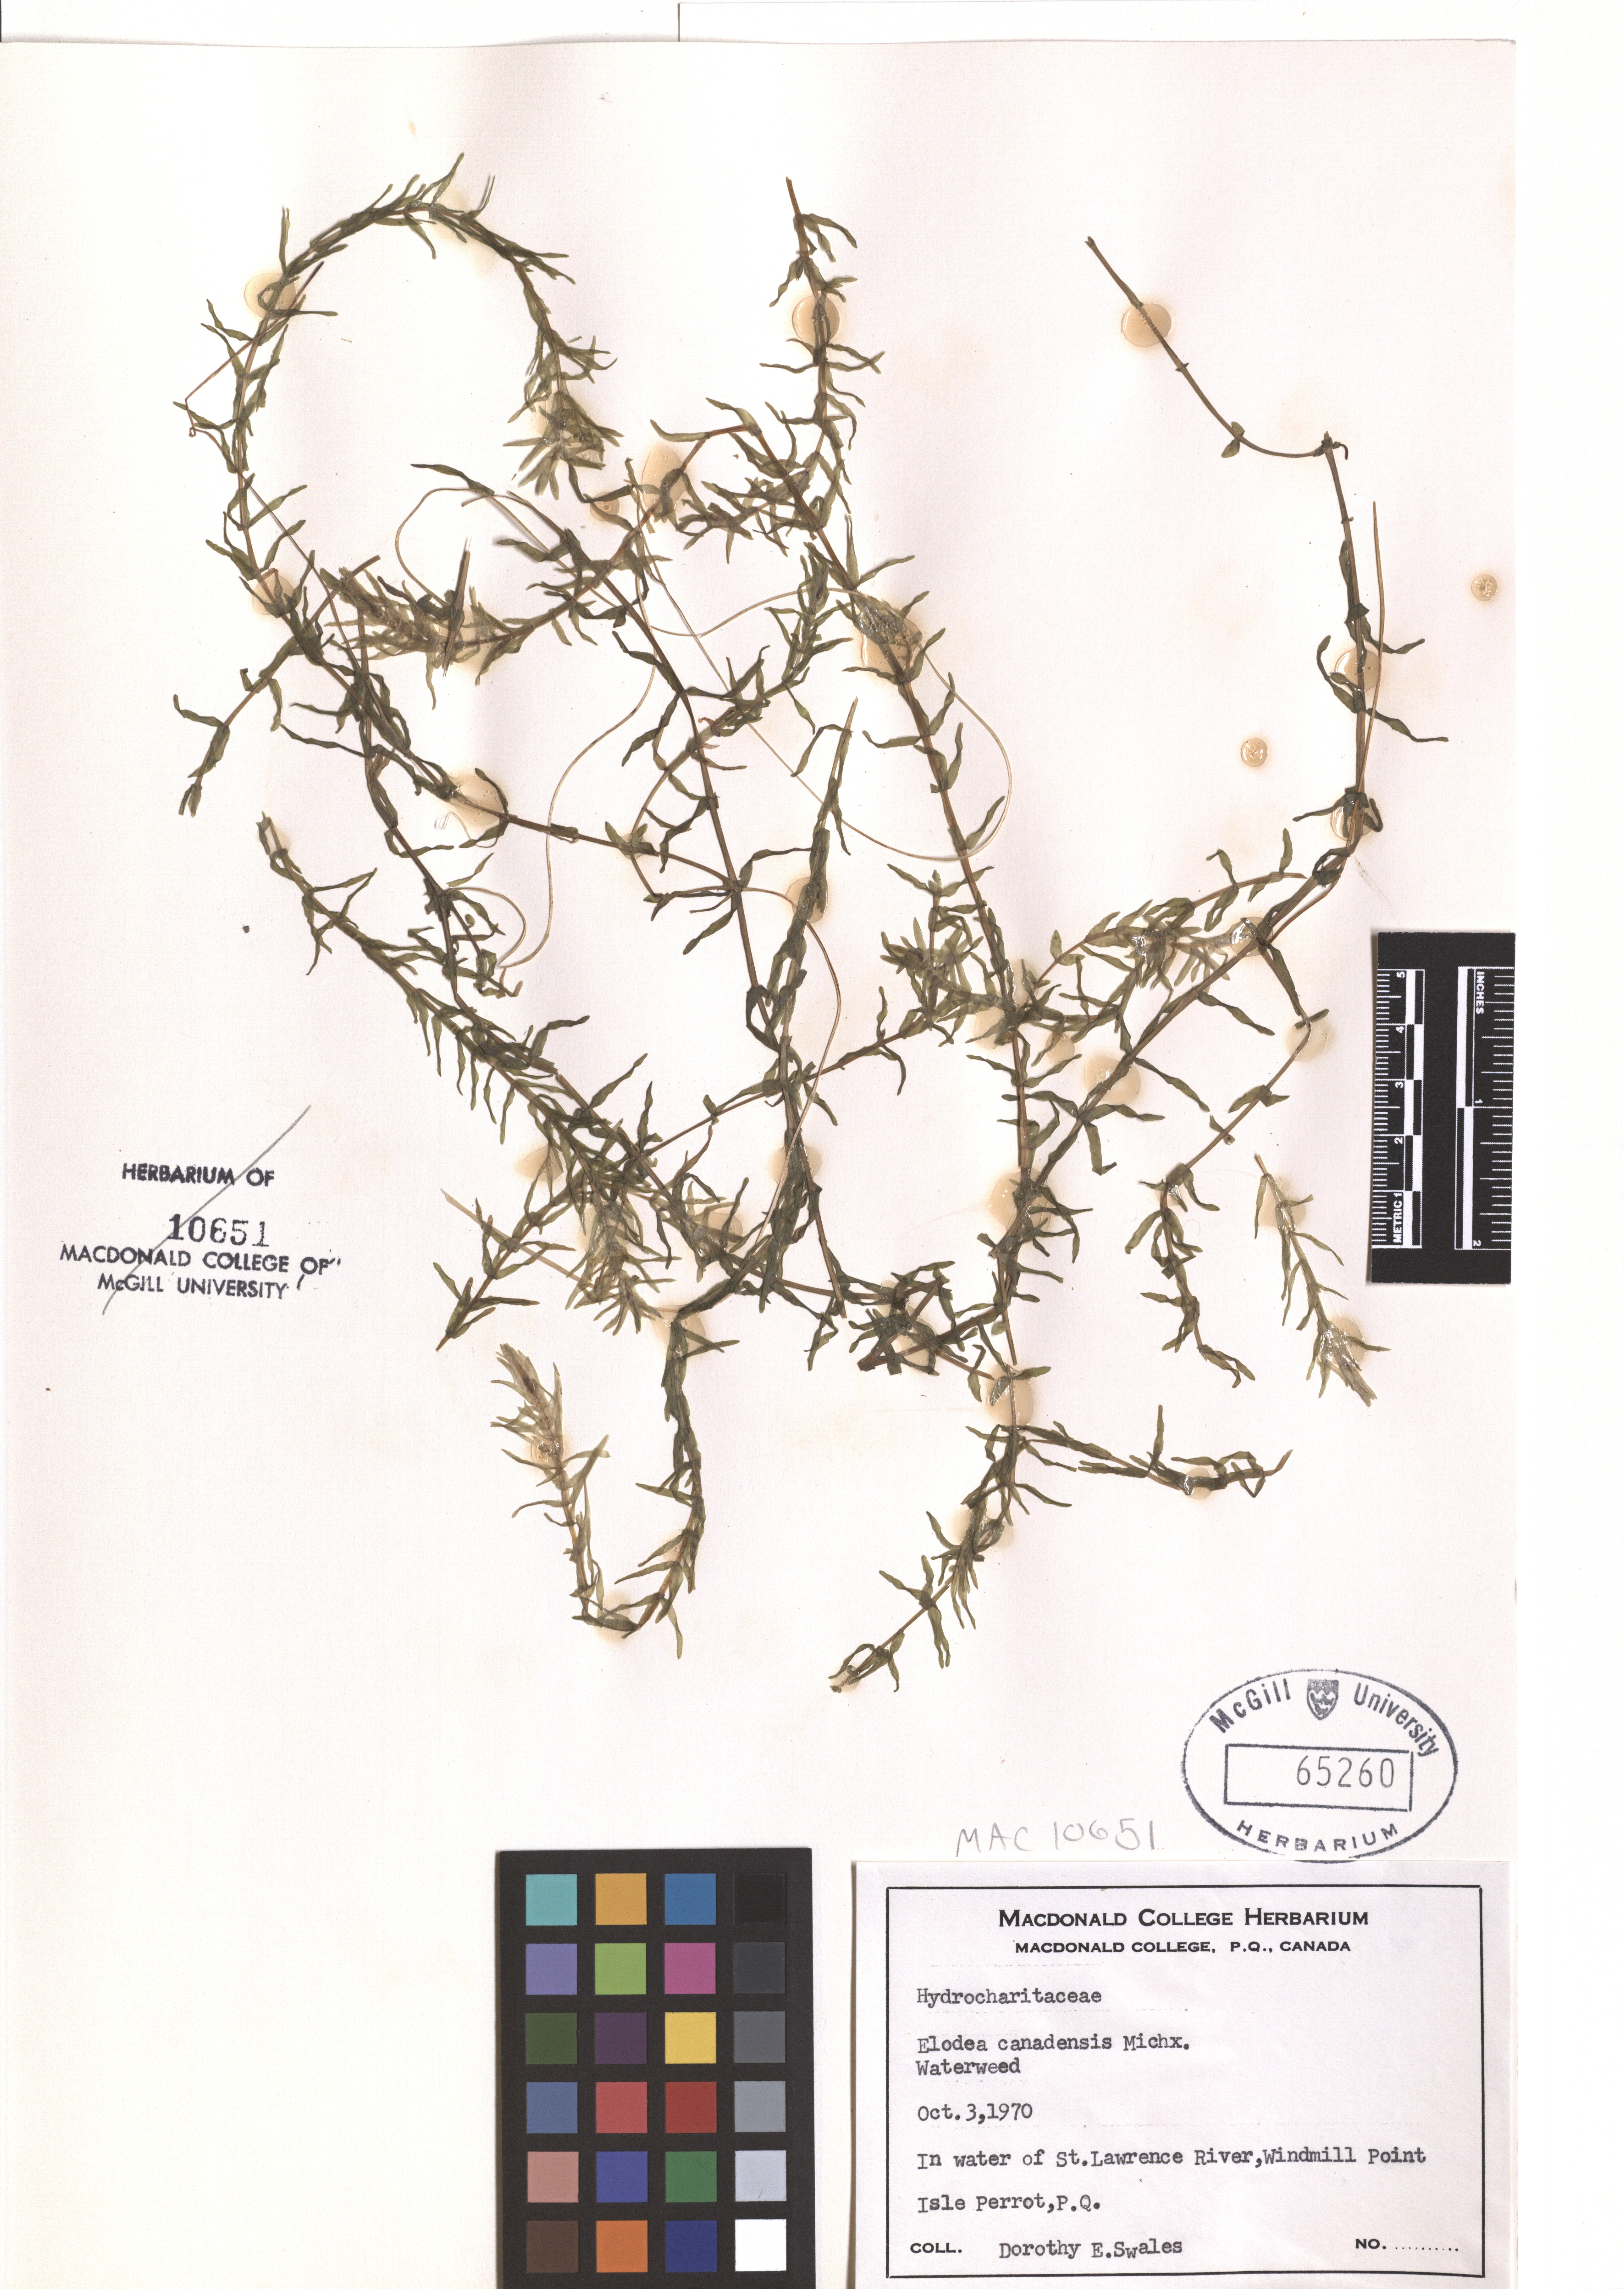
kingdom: Plantae
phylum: Tracheophyta
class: Liliopsida
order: Alismatales
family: Hydrocharitaceae
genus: Elodea
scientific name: Elodea canadensis
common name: Canadian waterweed
